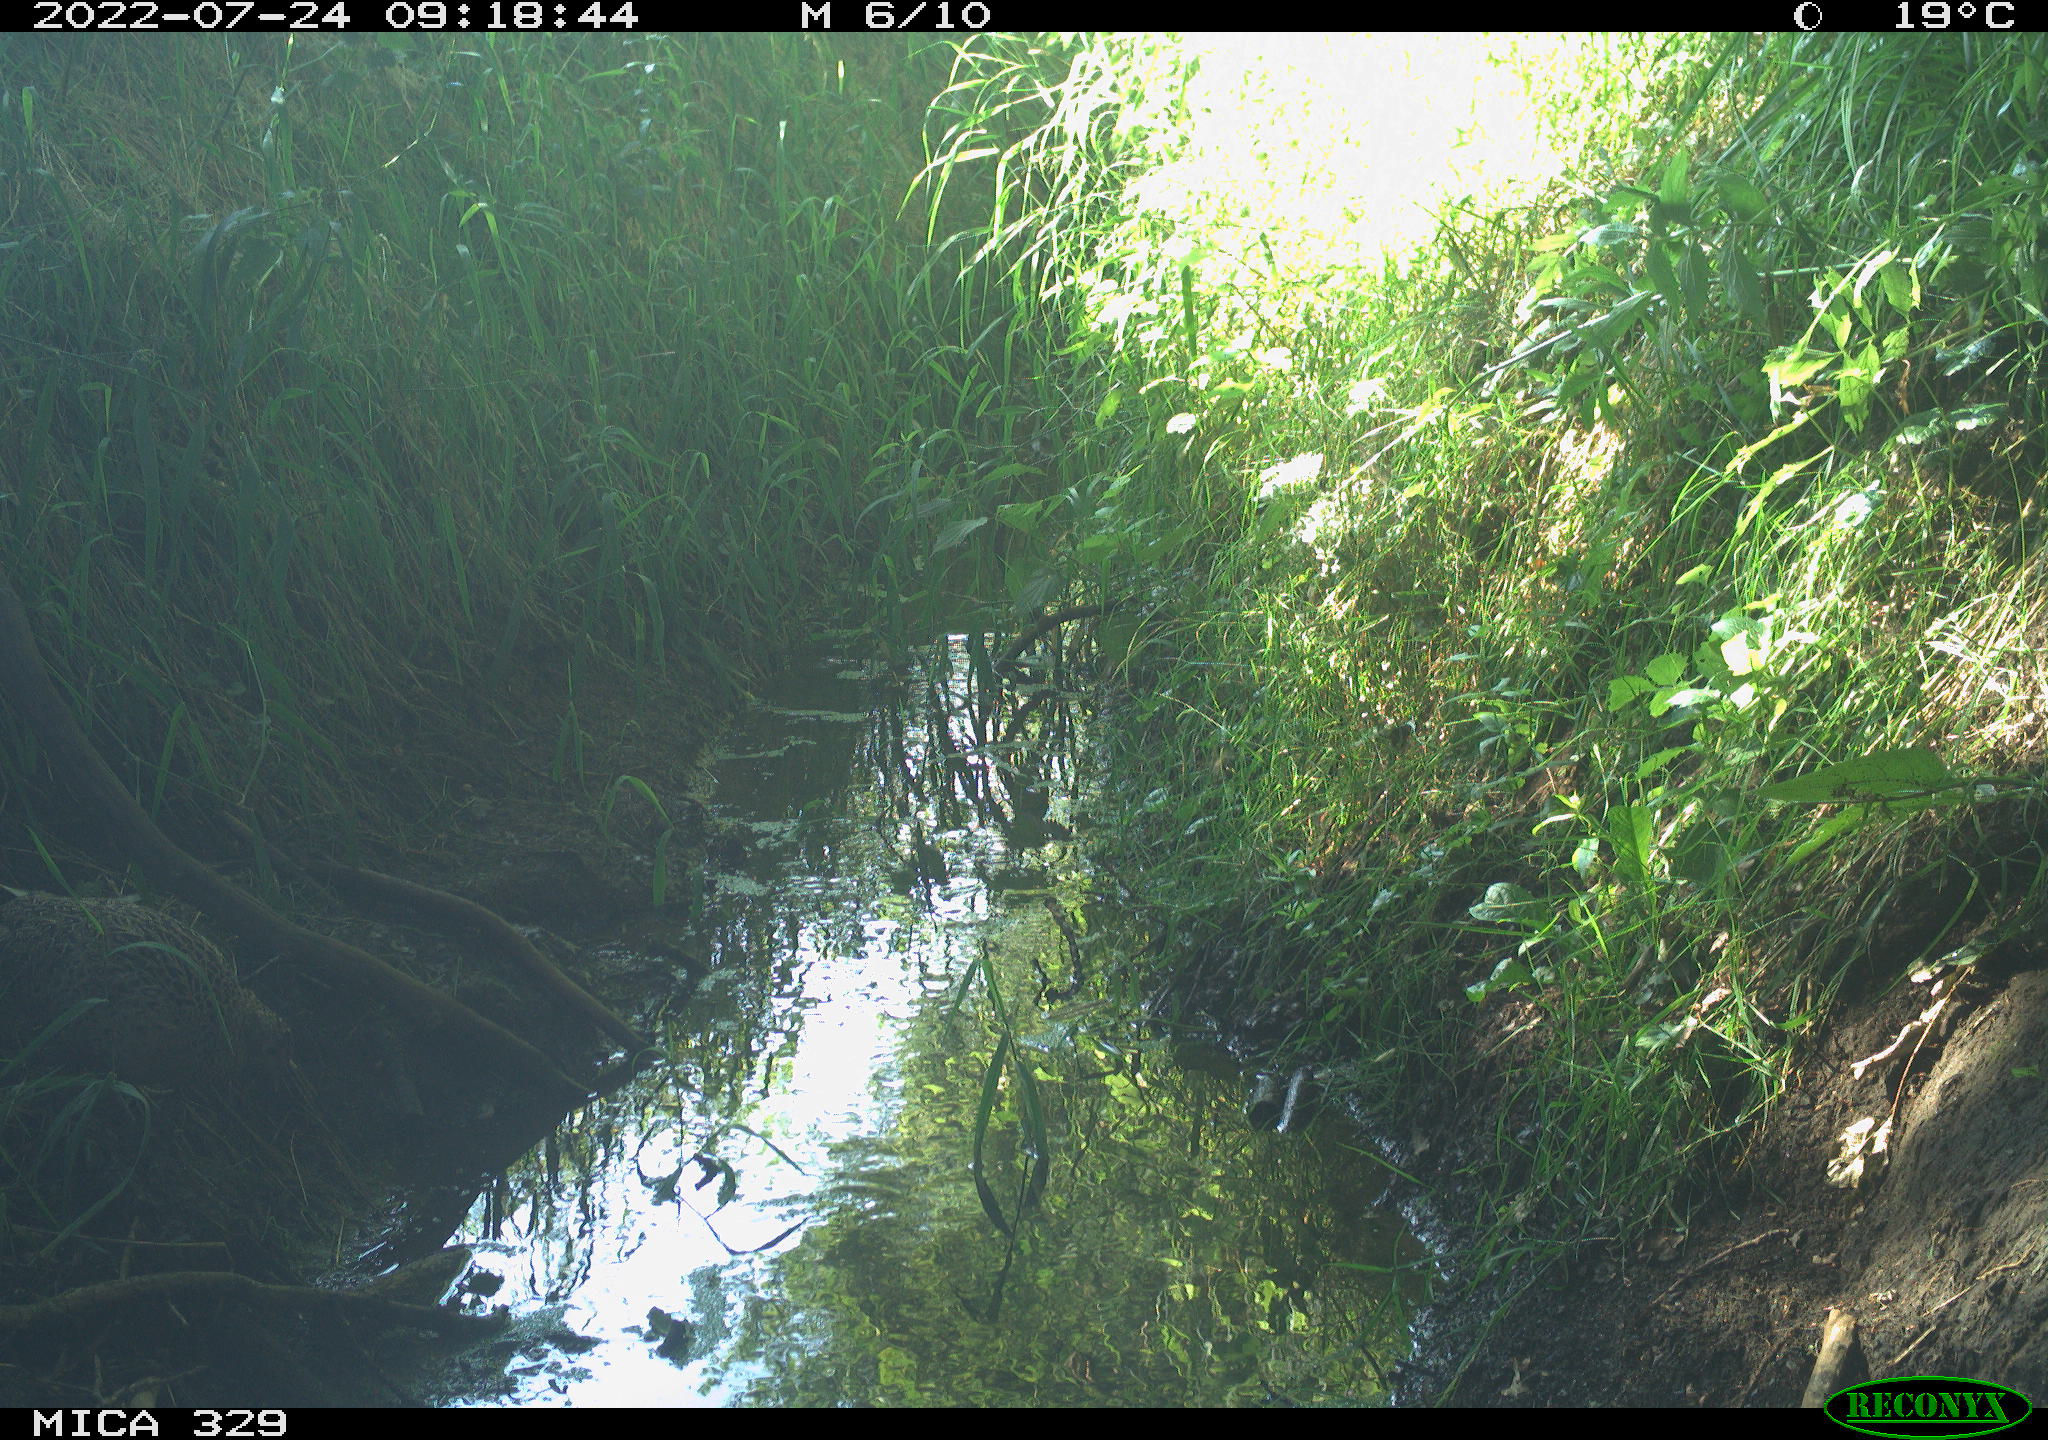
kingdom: Animalia
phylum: Chordata
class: Aves
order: Galliformes
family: Phasianidae
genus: Phasianus
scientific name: Phasianus colchicus
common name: Common pheasant
